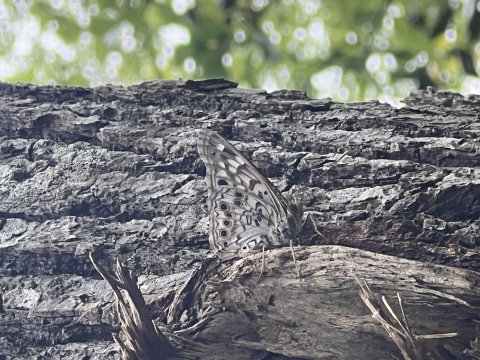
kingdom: Animalia
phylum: Arthropoda
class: Insecta
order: Lepidoptera
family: Nymphalidae
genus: Asterocampa
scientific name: Asterocampa celtis
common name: Hackberry Emperor
